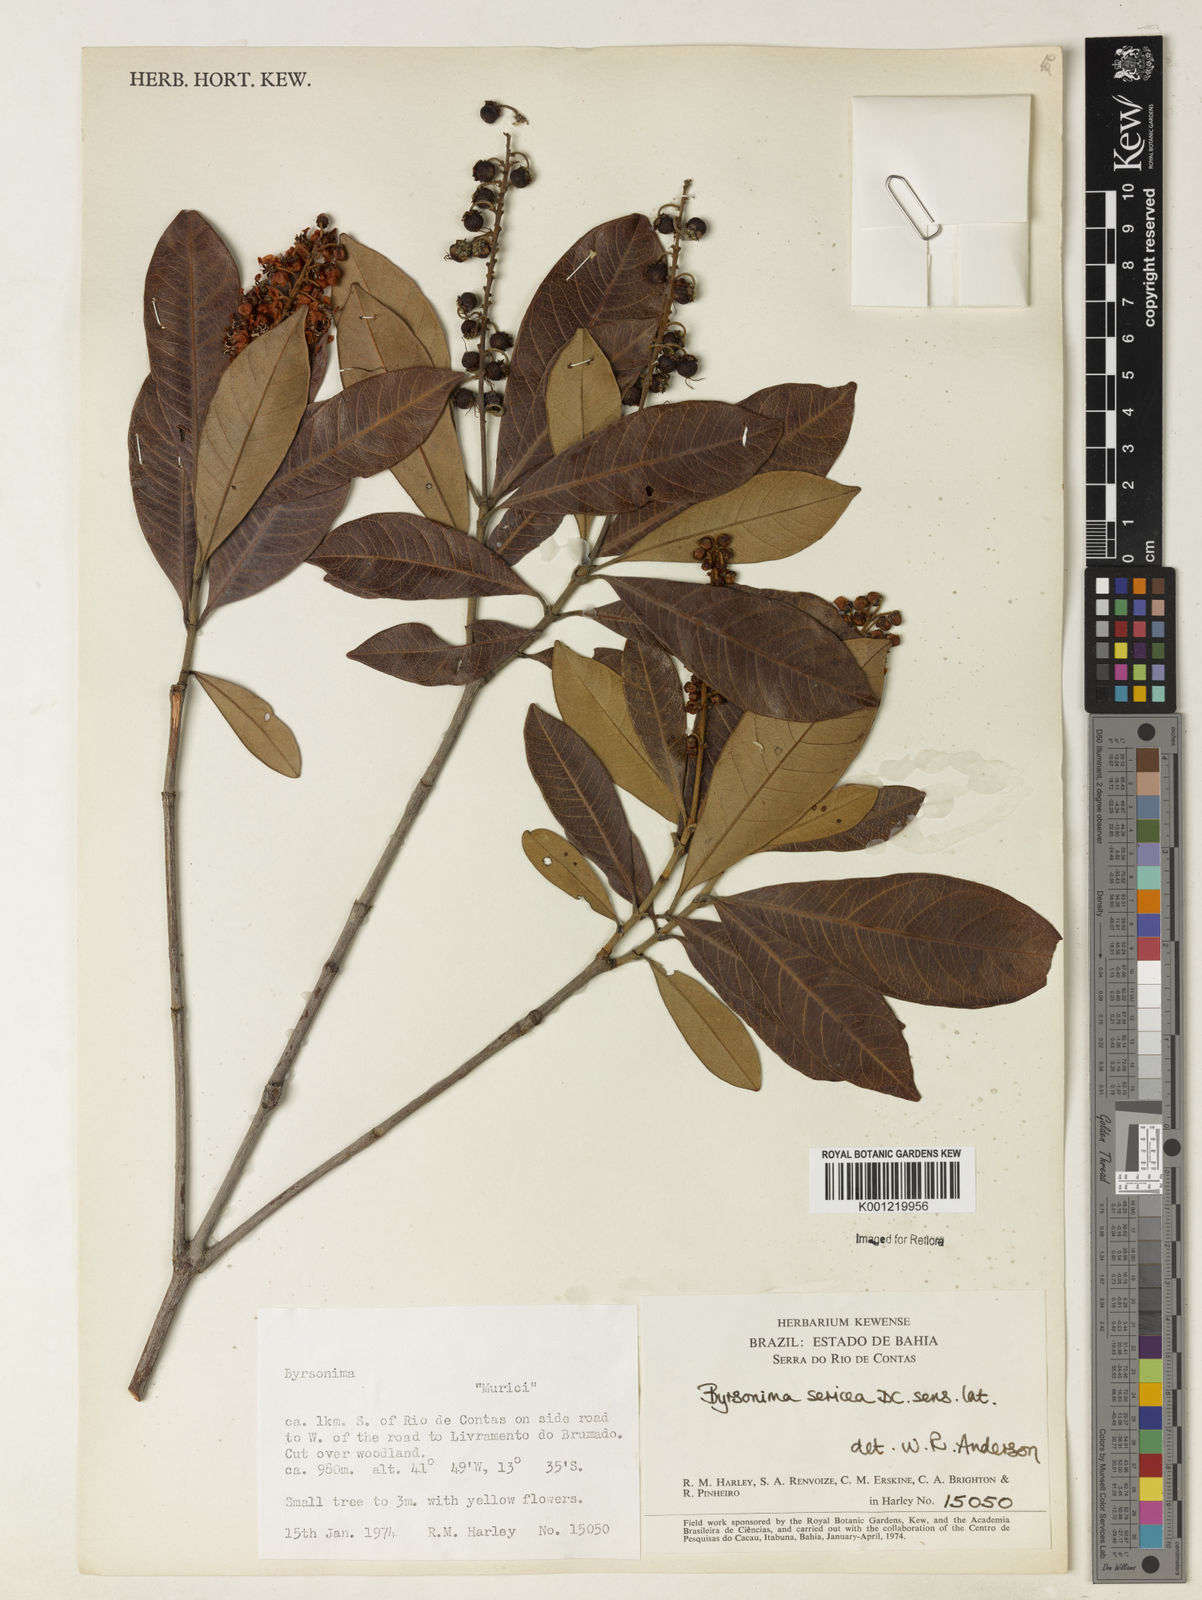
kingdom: Plantae
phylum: Tracheophyta
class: Magnoliopsida
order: Malpighiales
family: Malpighiaceae
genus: Byrsonima
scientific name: Byrsonima sericea
